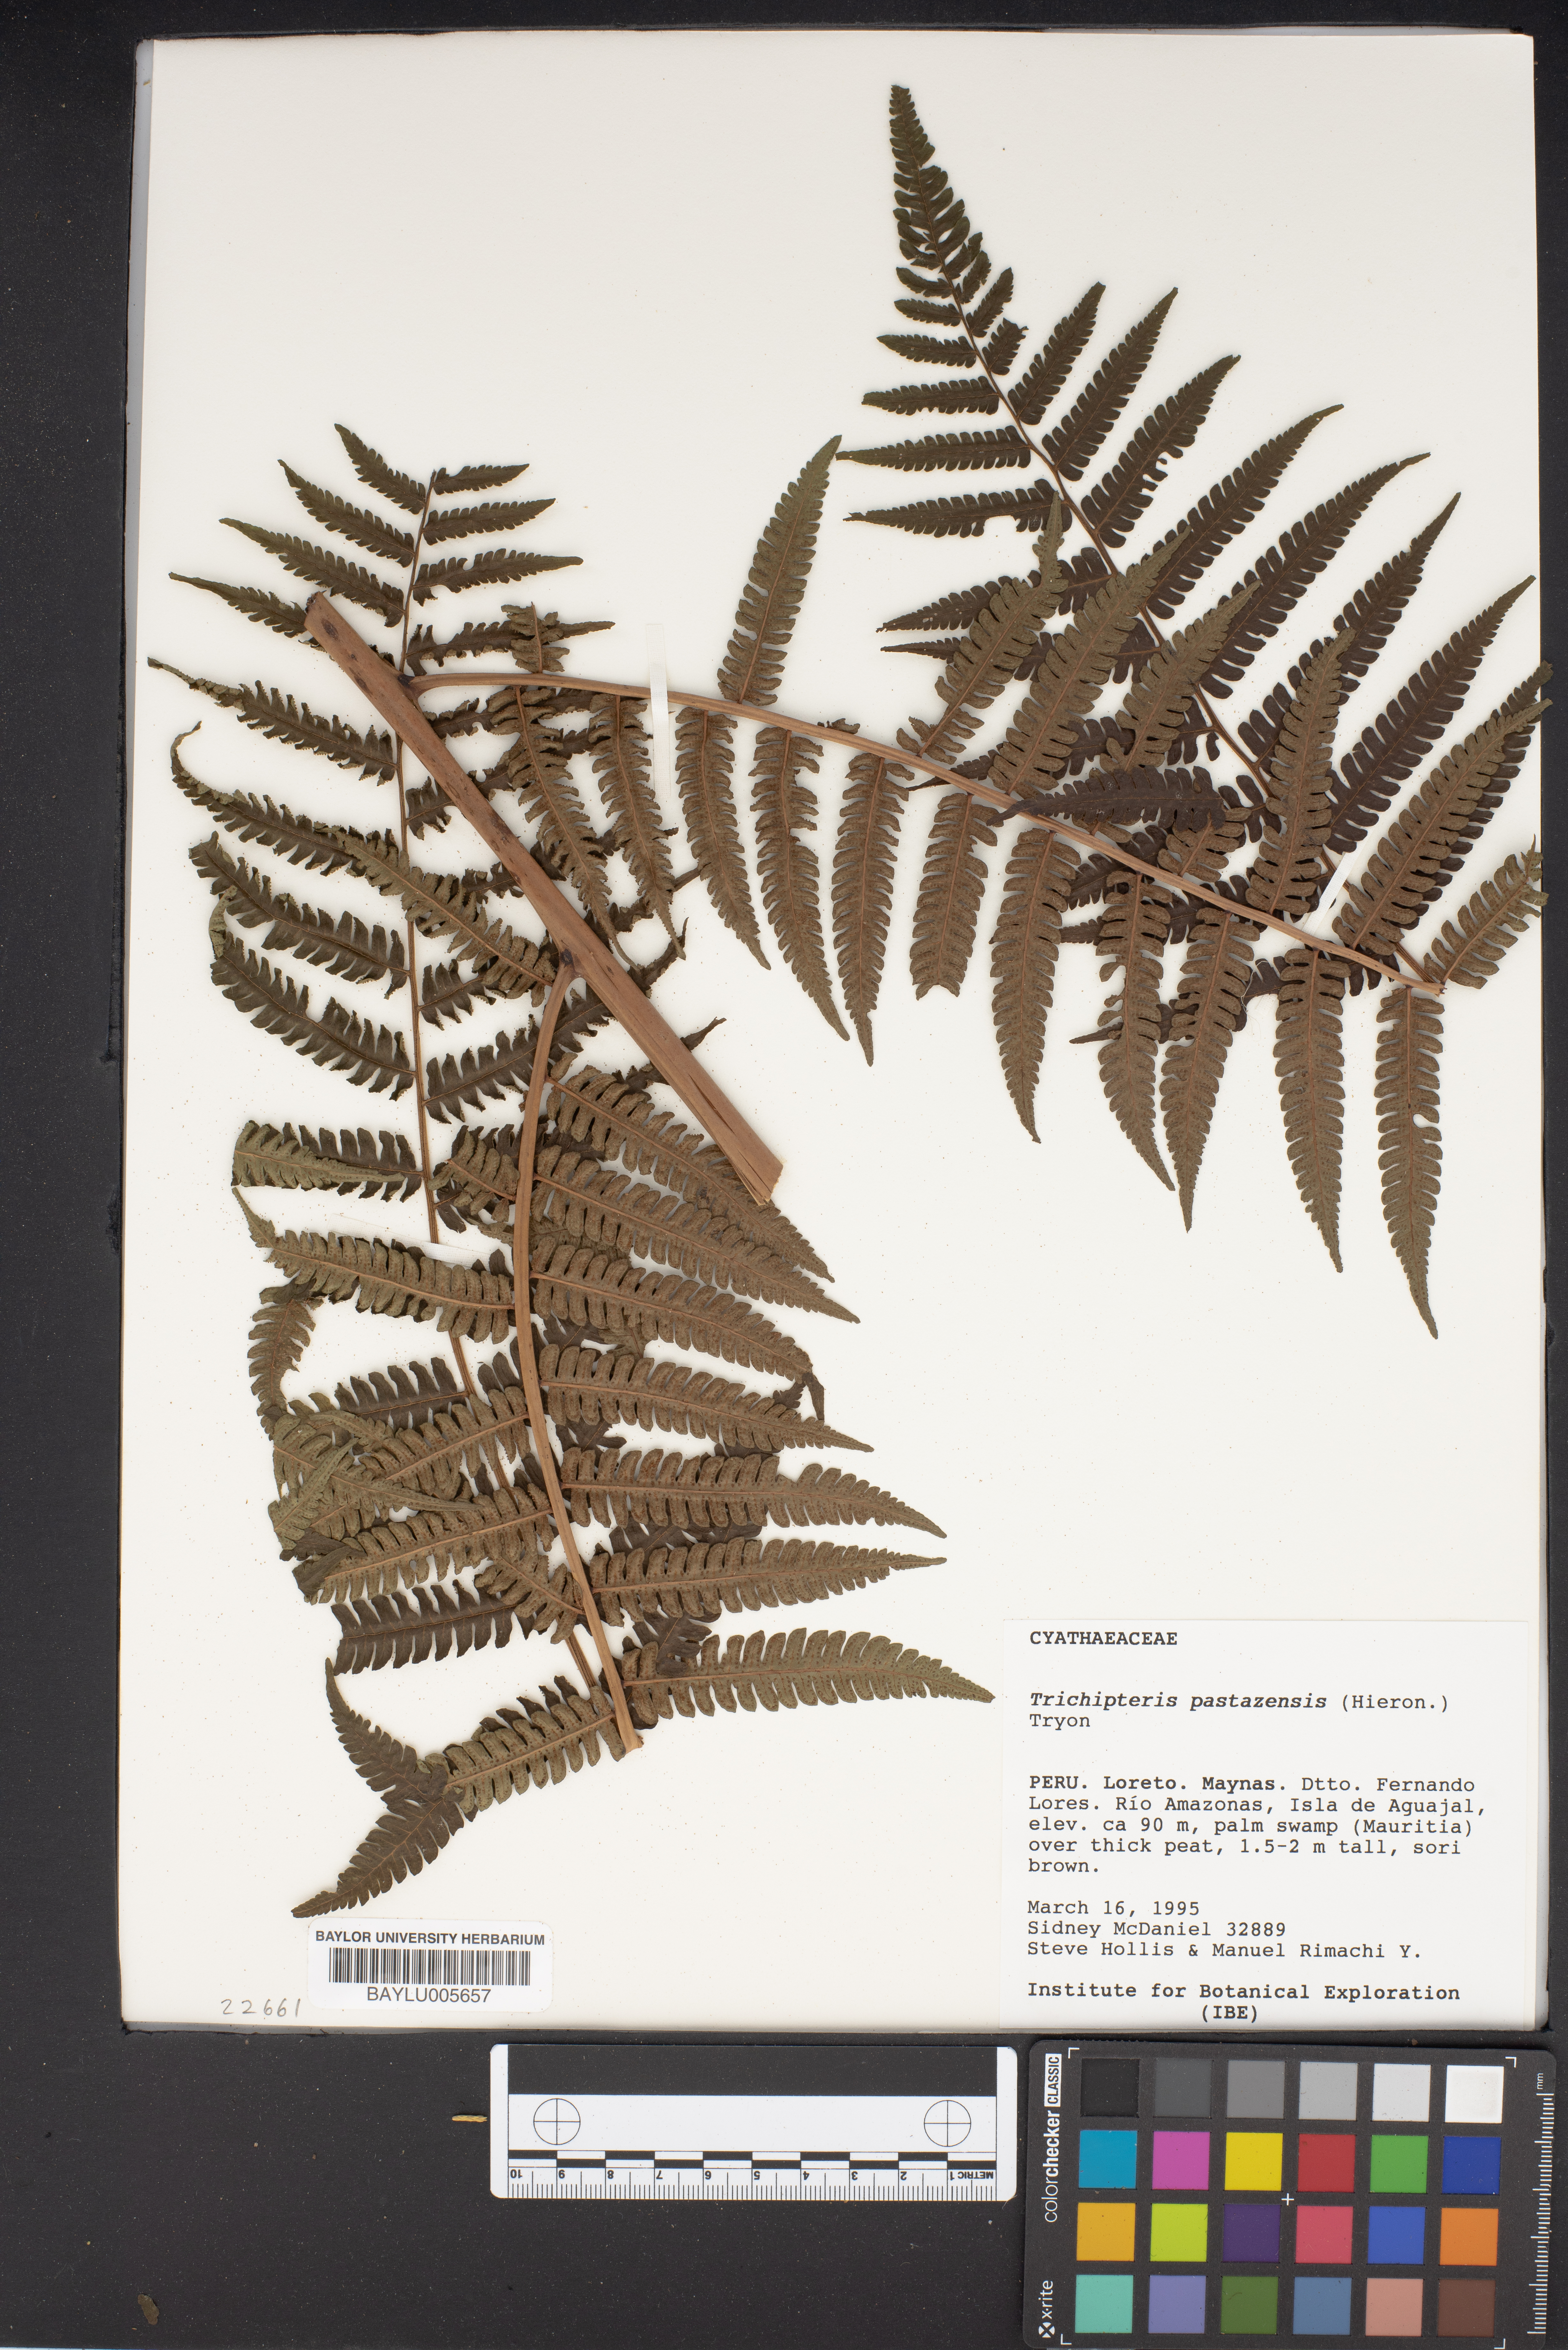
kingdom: Plantae
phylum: Tracheophyta
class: Polypodiopsida
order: Cyatheales
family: Cyatheaceae
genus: Cyathea
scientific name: Cyathea pungens
